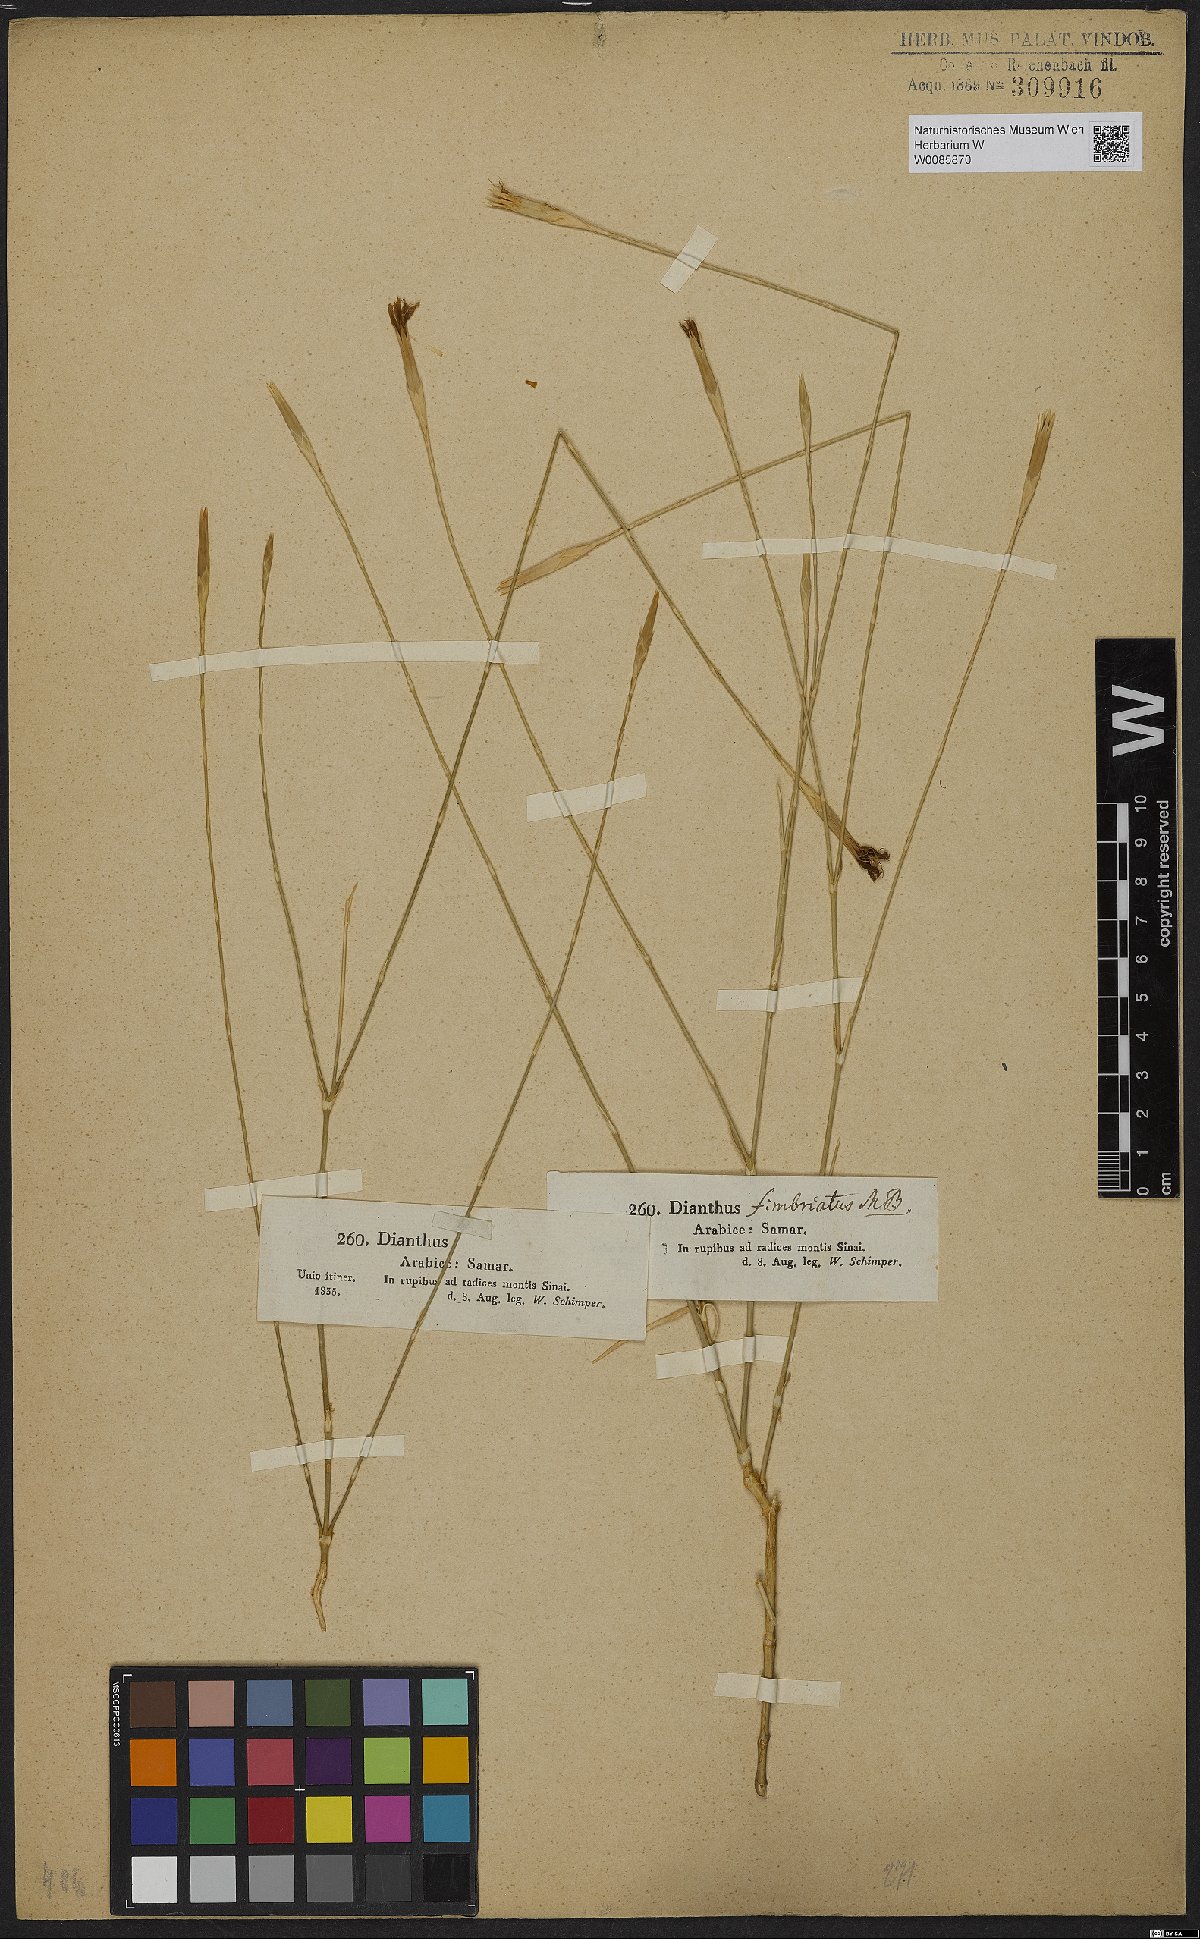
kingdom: Plantae
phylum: Tracheophyta
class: Magnoliopsida
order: Caryophyllales
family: Caryophyllaceae
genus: Dianthus
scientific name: Dianthus sinaicus
